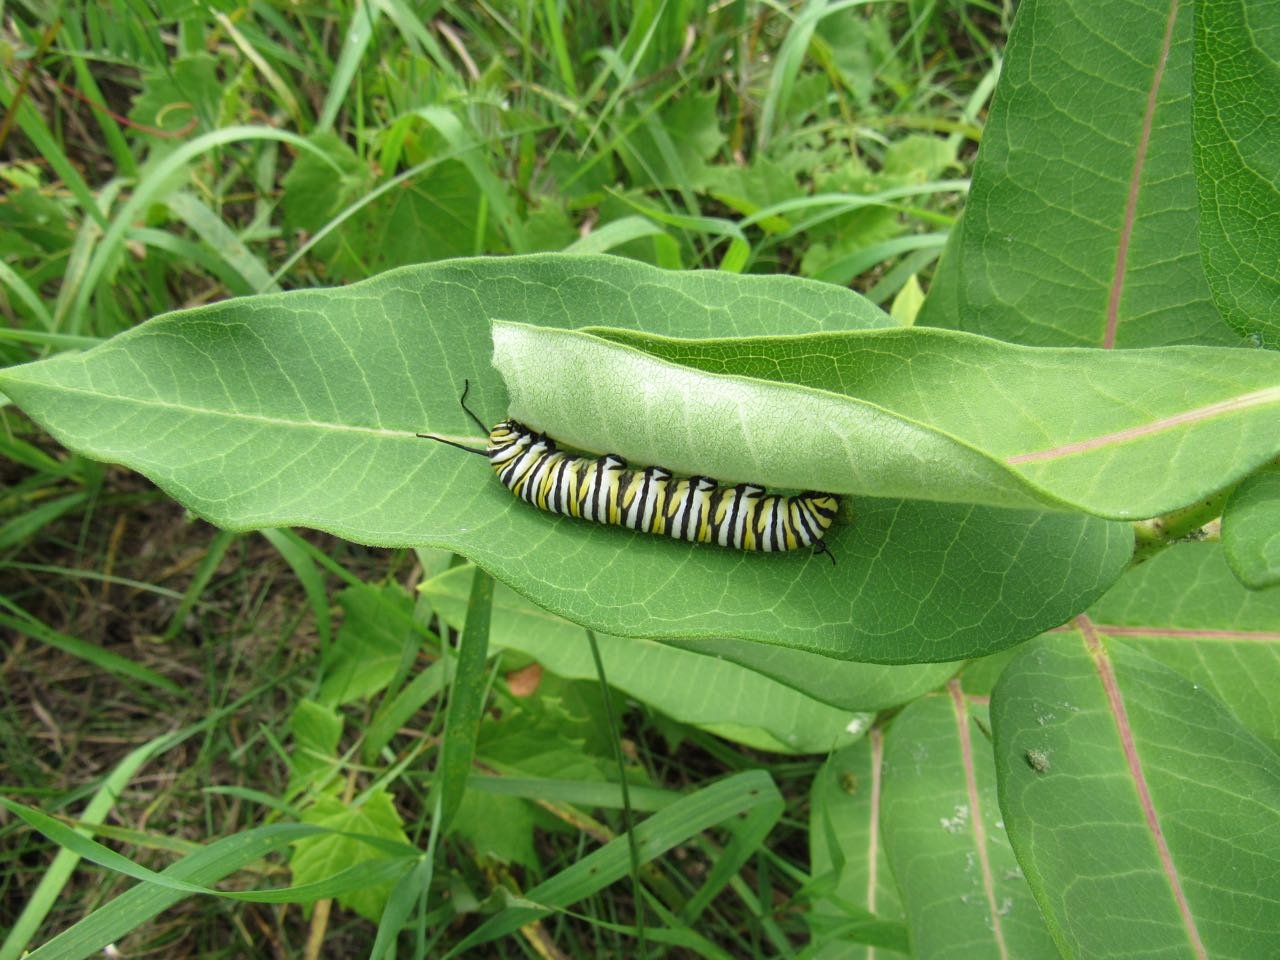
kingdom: Animalia
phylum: Arthropoda
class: Insecta
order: Lepidoptera
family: Nymphalidae
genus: Danaus
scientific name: Danaus plexippus
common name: Monarch
